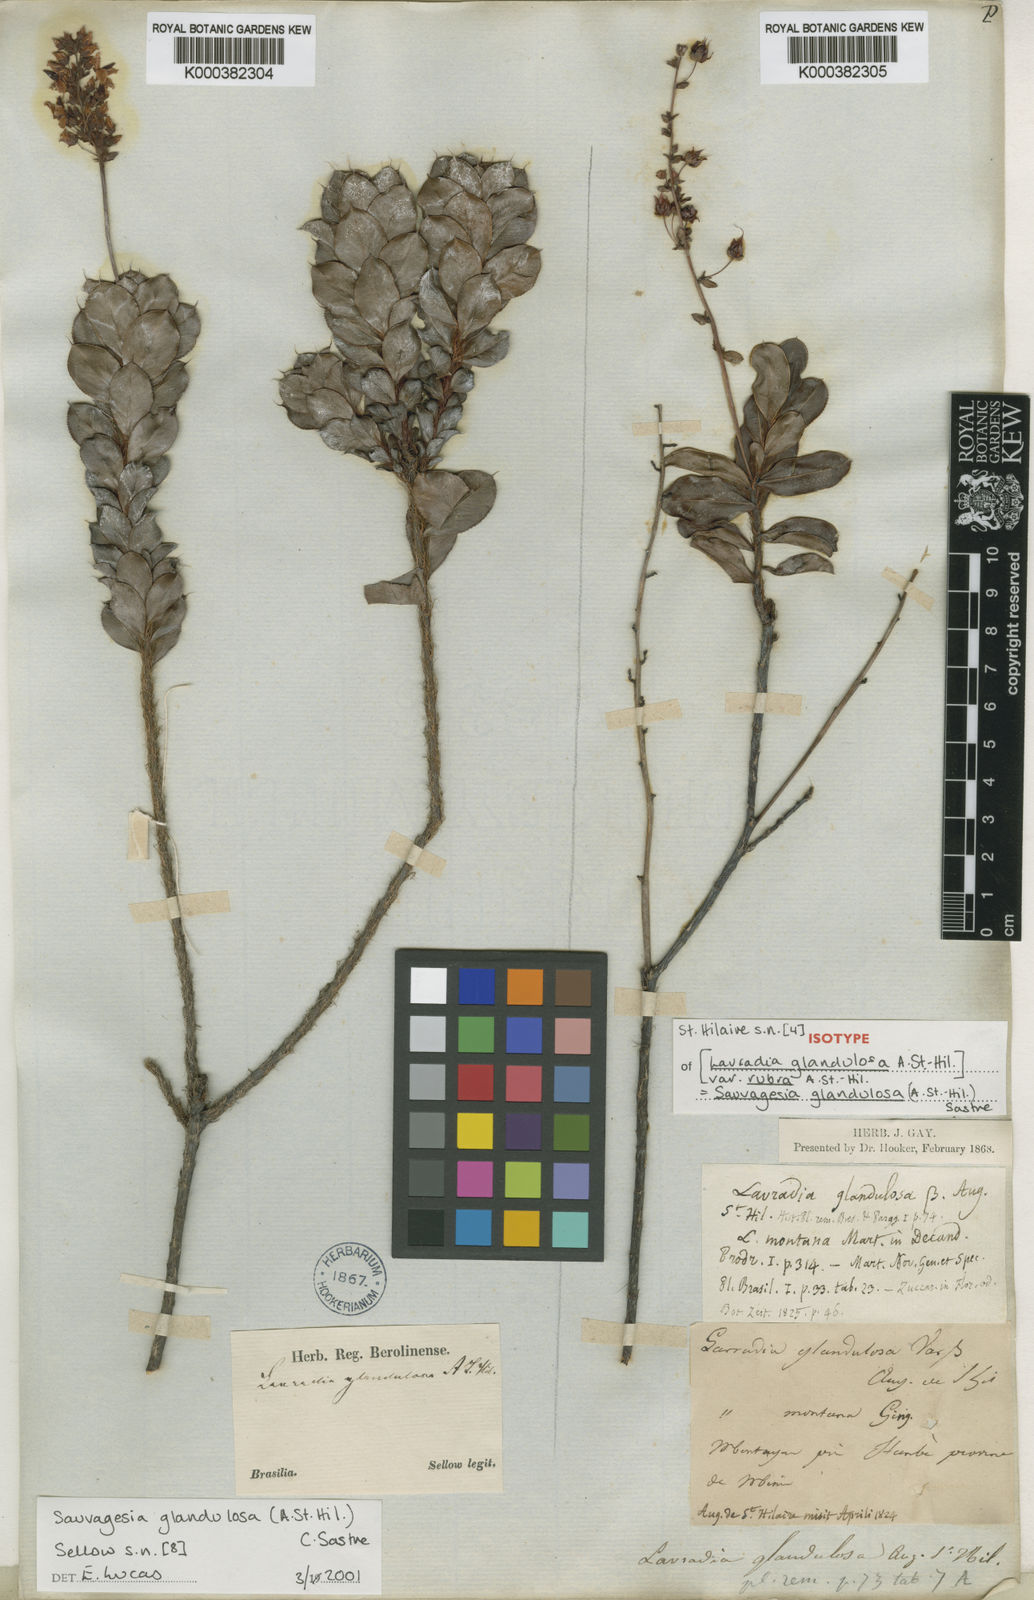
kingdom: Plantae
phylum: Tracheophyta
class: Magnoliopsida
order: Malpighiales
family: Ochnaceae
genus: Sauvagesia
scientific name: Sauvagesia glandulosa
